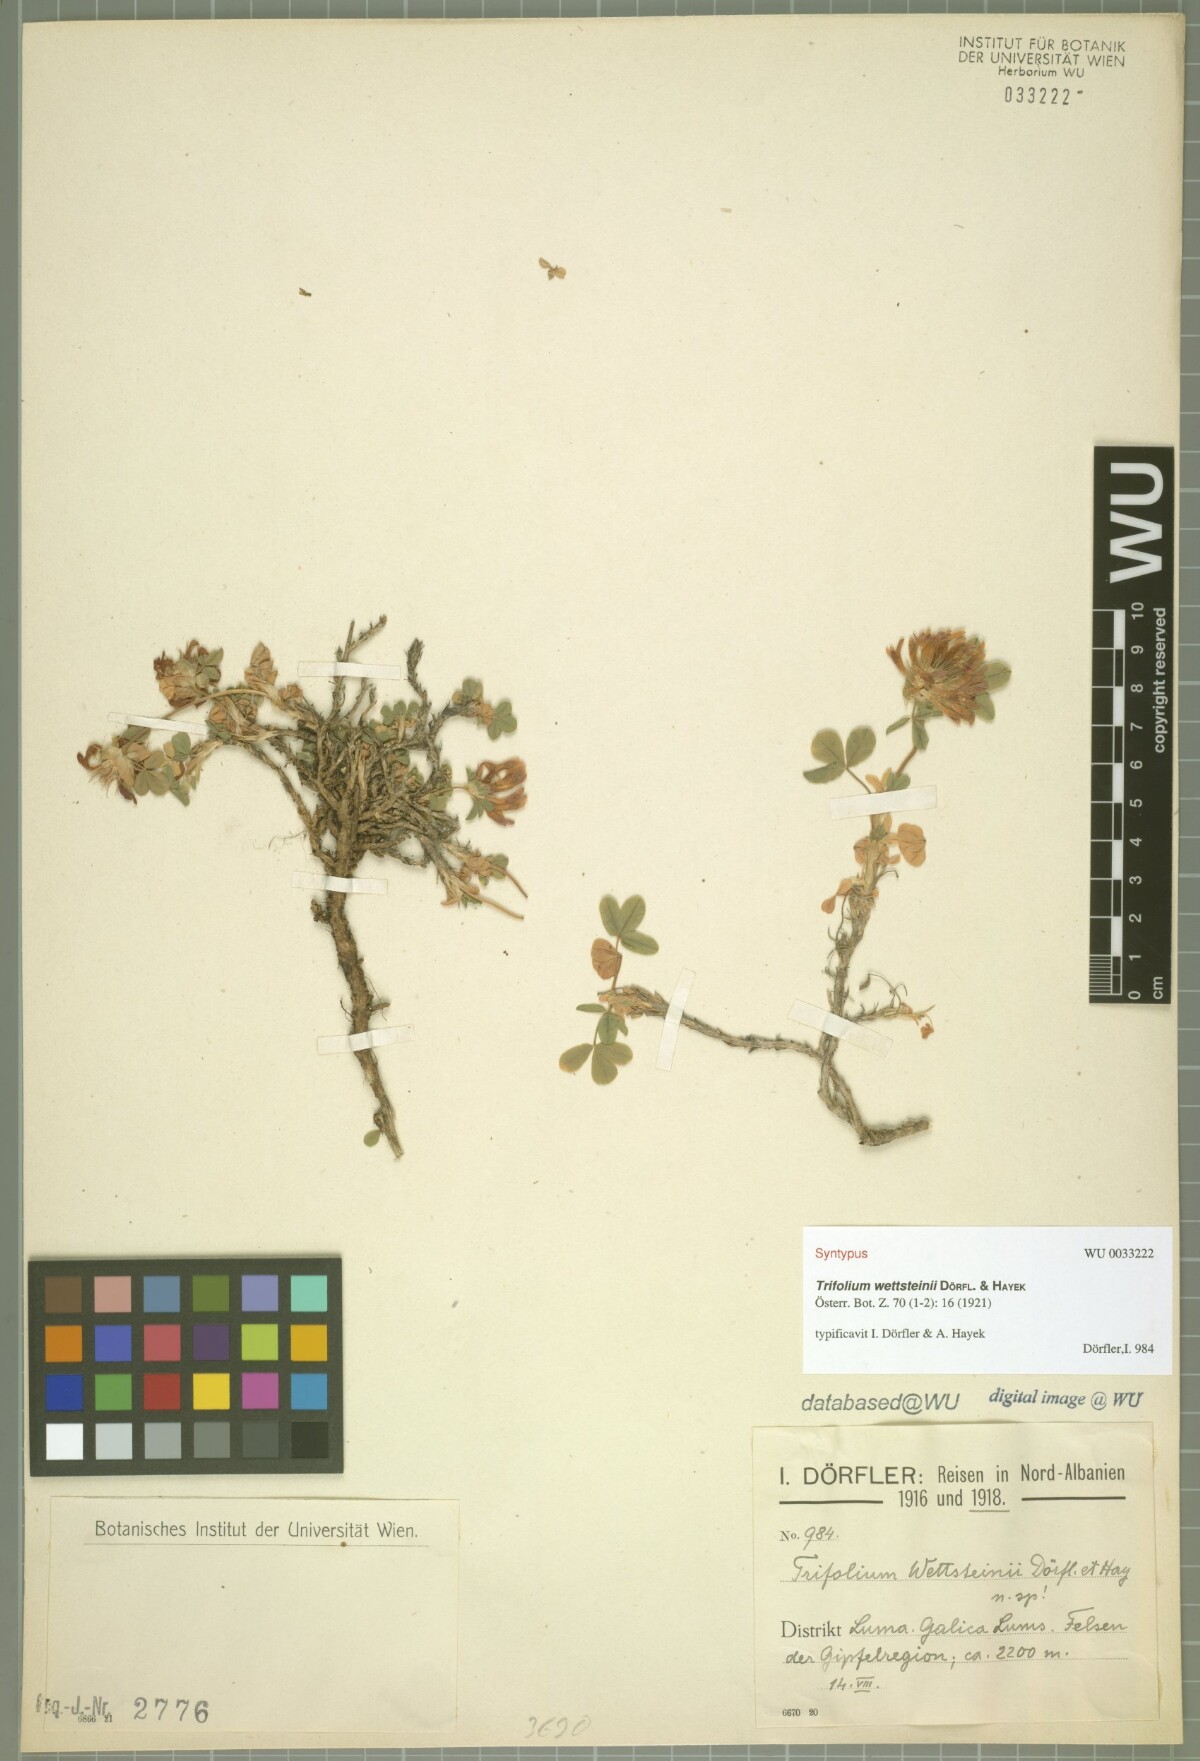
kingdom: Plantae
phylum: Tracheophyta
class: Magnoliopsida
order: Fabales
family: Fabaceae
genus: Trifolium
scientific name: Trifolium wettsteinii
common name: Wettstein's clover
